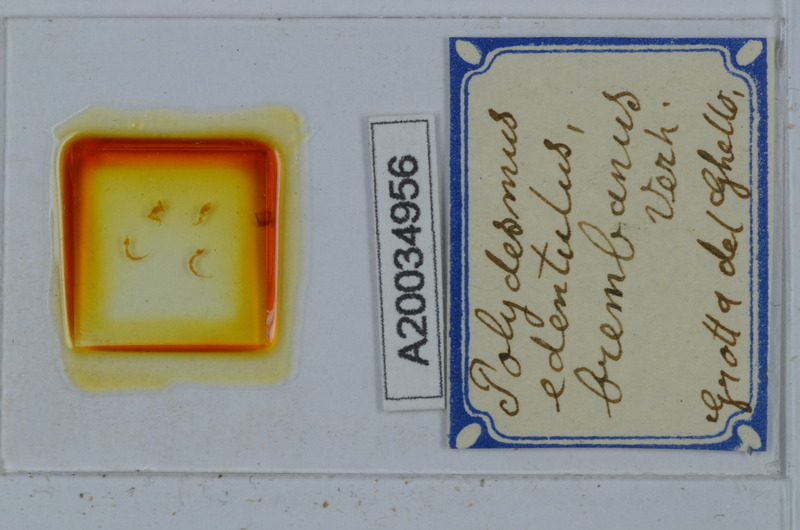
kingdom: Animalia
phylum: Arthropoda
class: Diplopoda
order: Polydesmida
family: Polydesmidae
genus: Polydesmus
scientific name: Polydesmus edentulus
